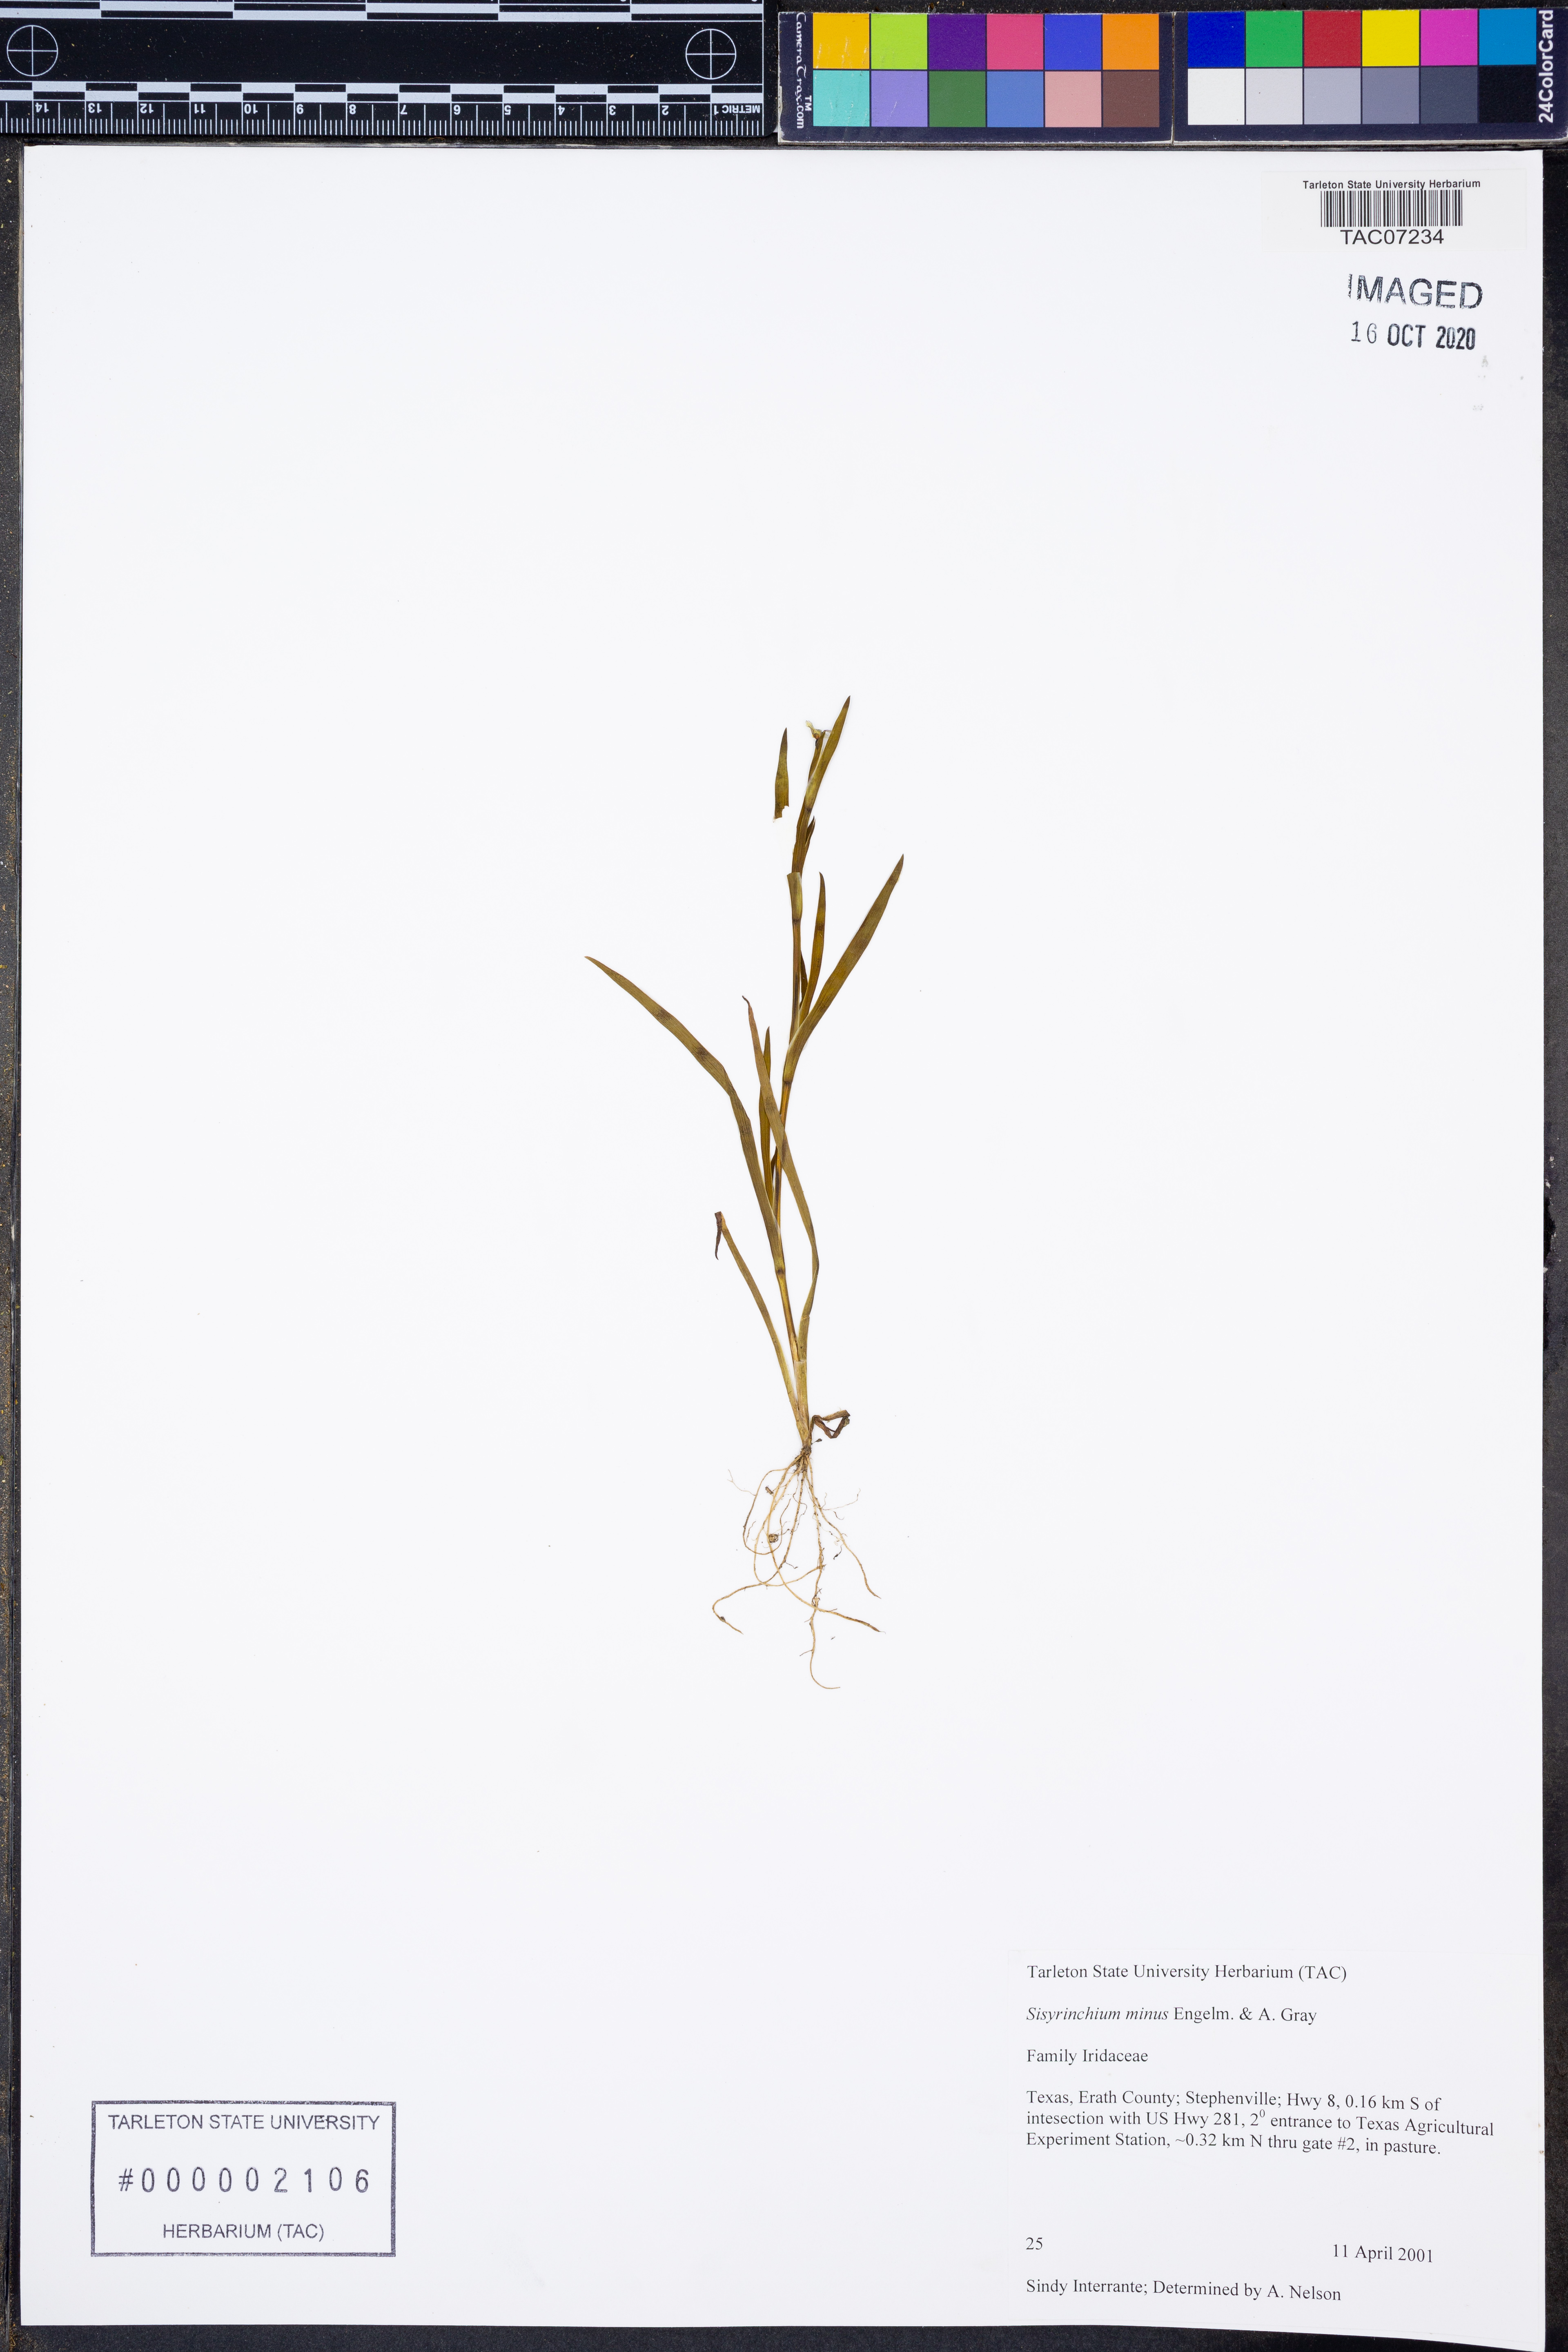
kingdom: Plantae
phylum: Tracheophyta
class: Liliopsida
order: Asparagales
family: Iridaceae
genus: Sisyrinchium
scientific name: Sisyrinchium minus
